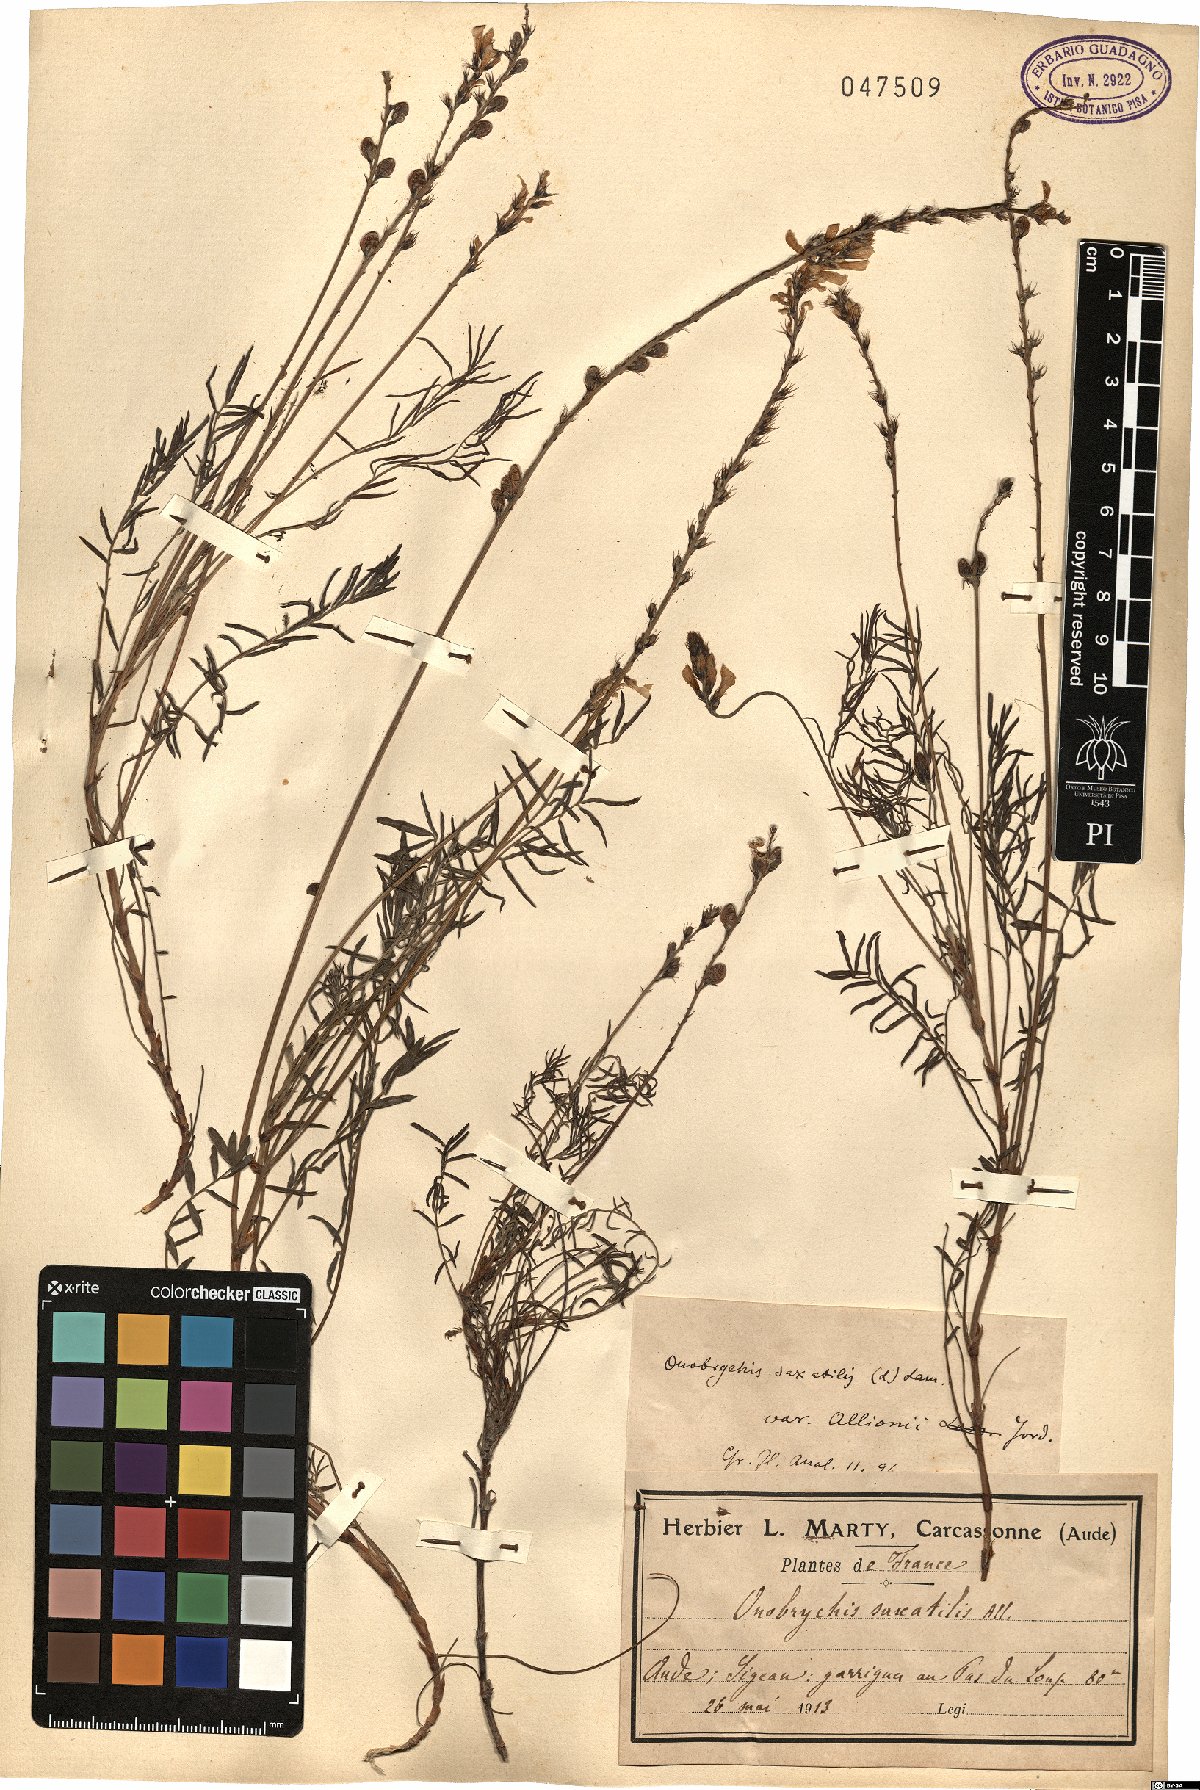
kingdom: Plantae
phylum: Tracheophyta
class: Magnoliopsida
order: Fabales
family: Fabaceae
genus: Onobrychis
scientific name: Onobrychis saxatilis
